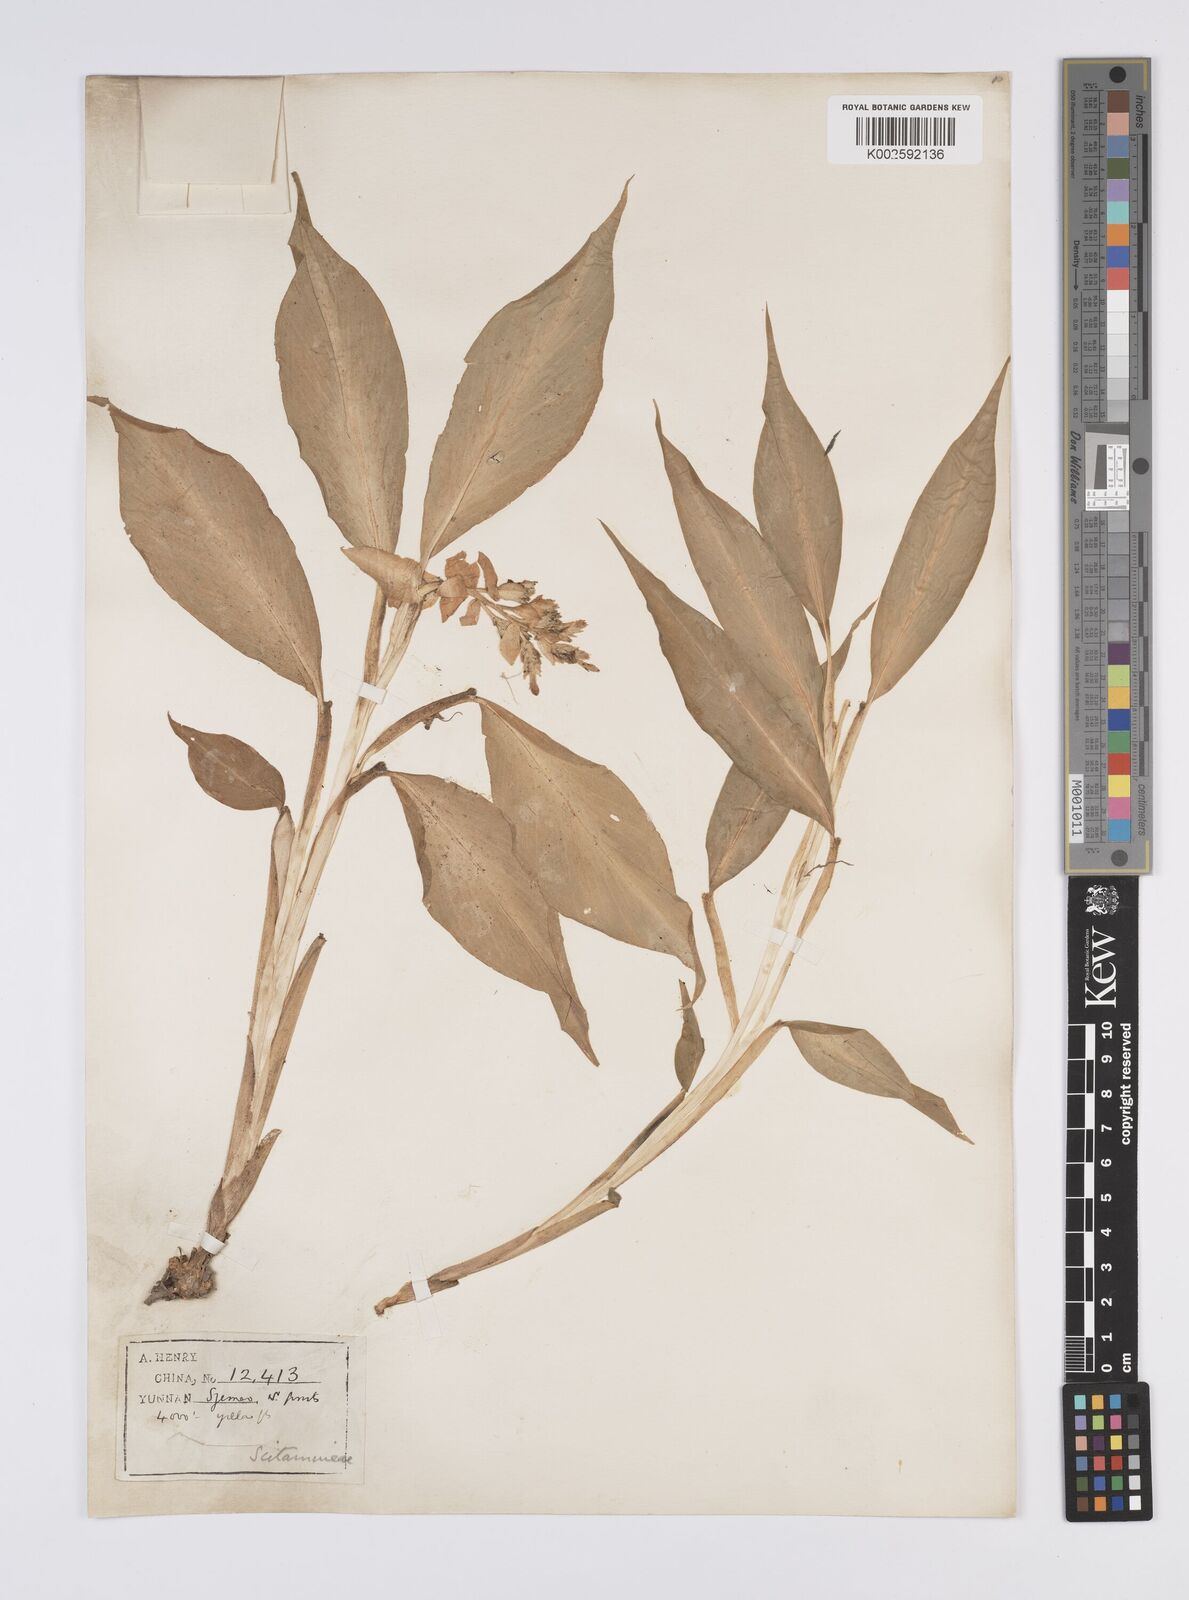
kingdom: Plantae
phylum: Tracheophyta
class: Liliopsida
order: Zingiberales
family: Zingiberaceae
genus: Globba
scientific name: Globba
